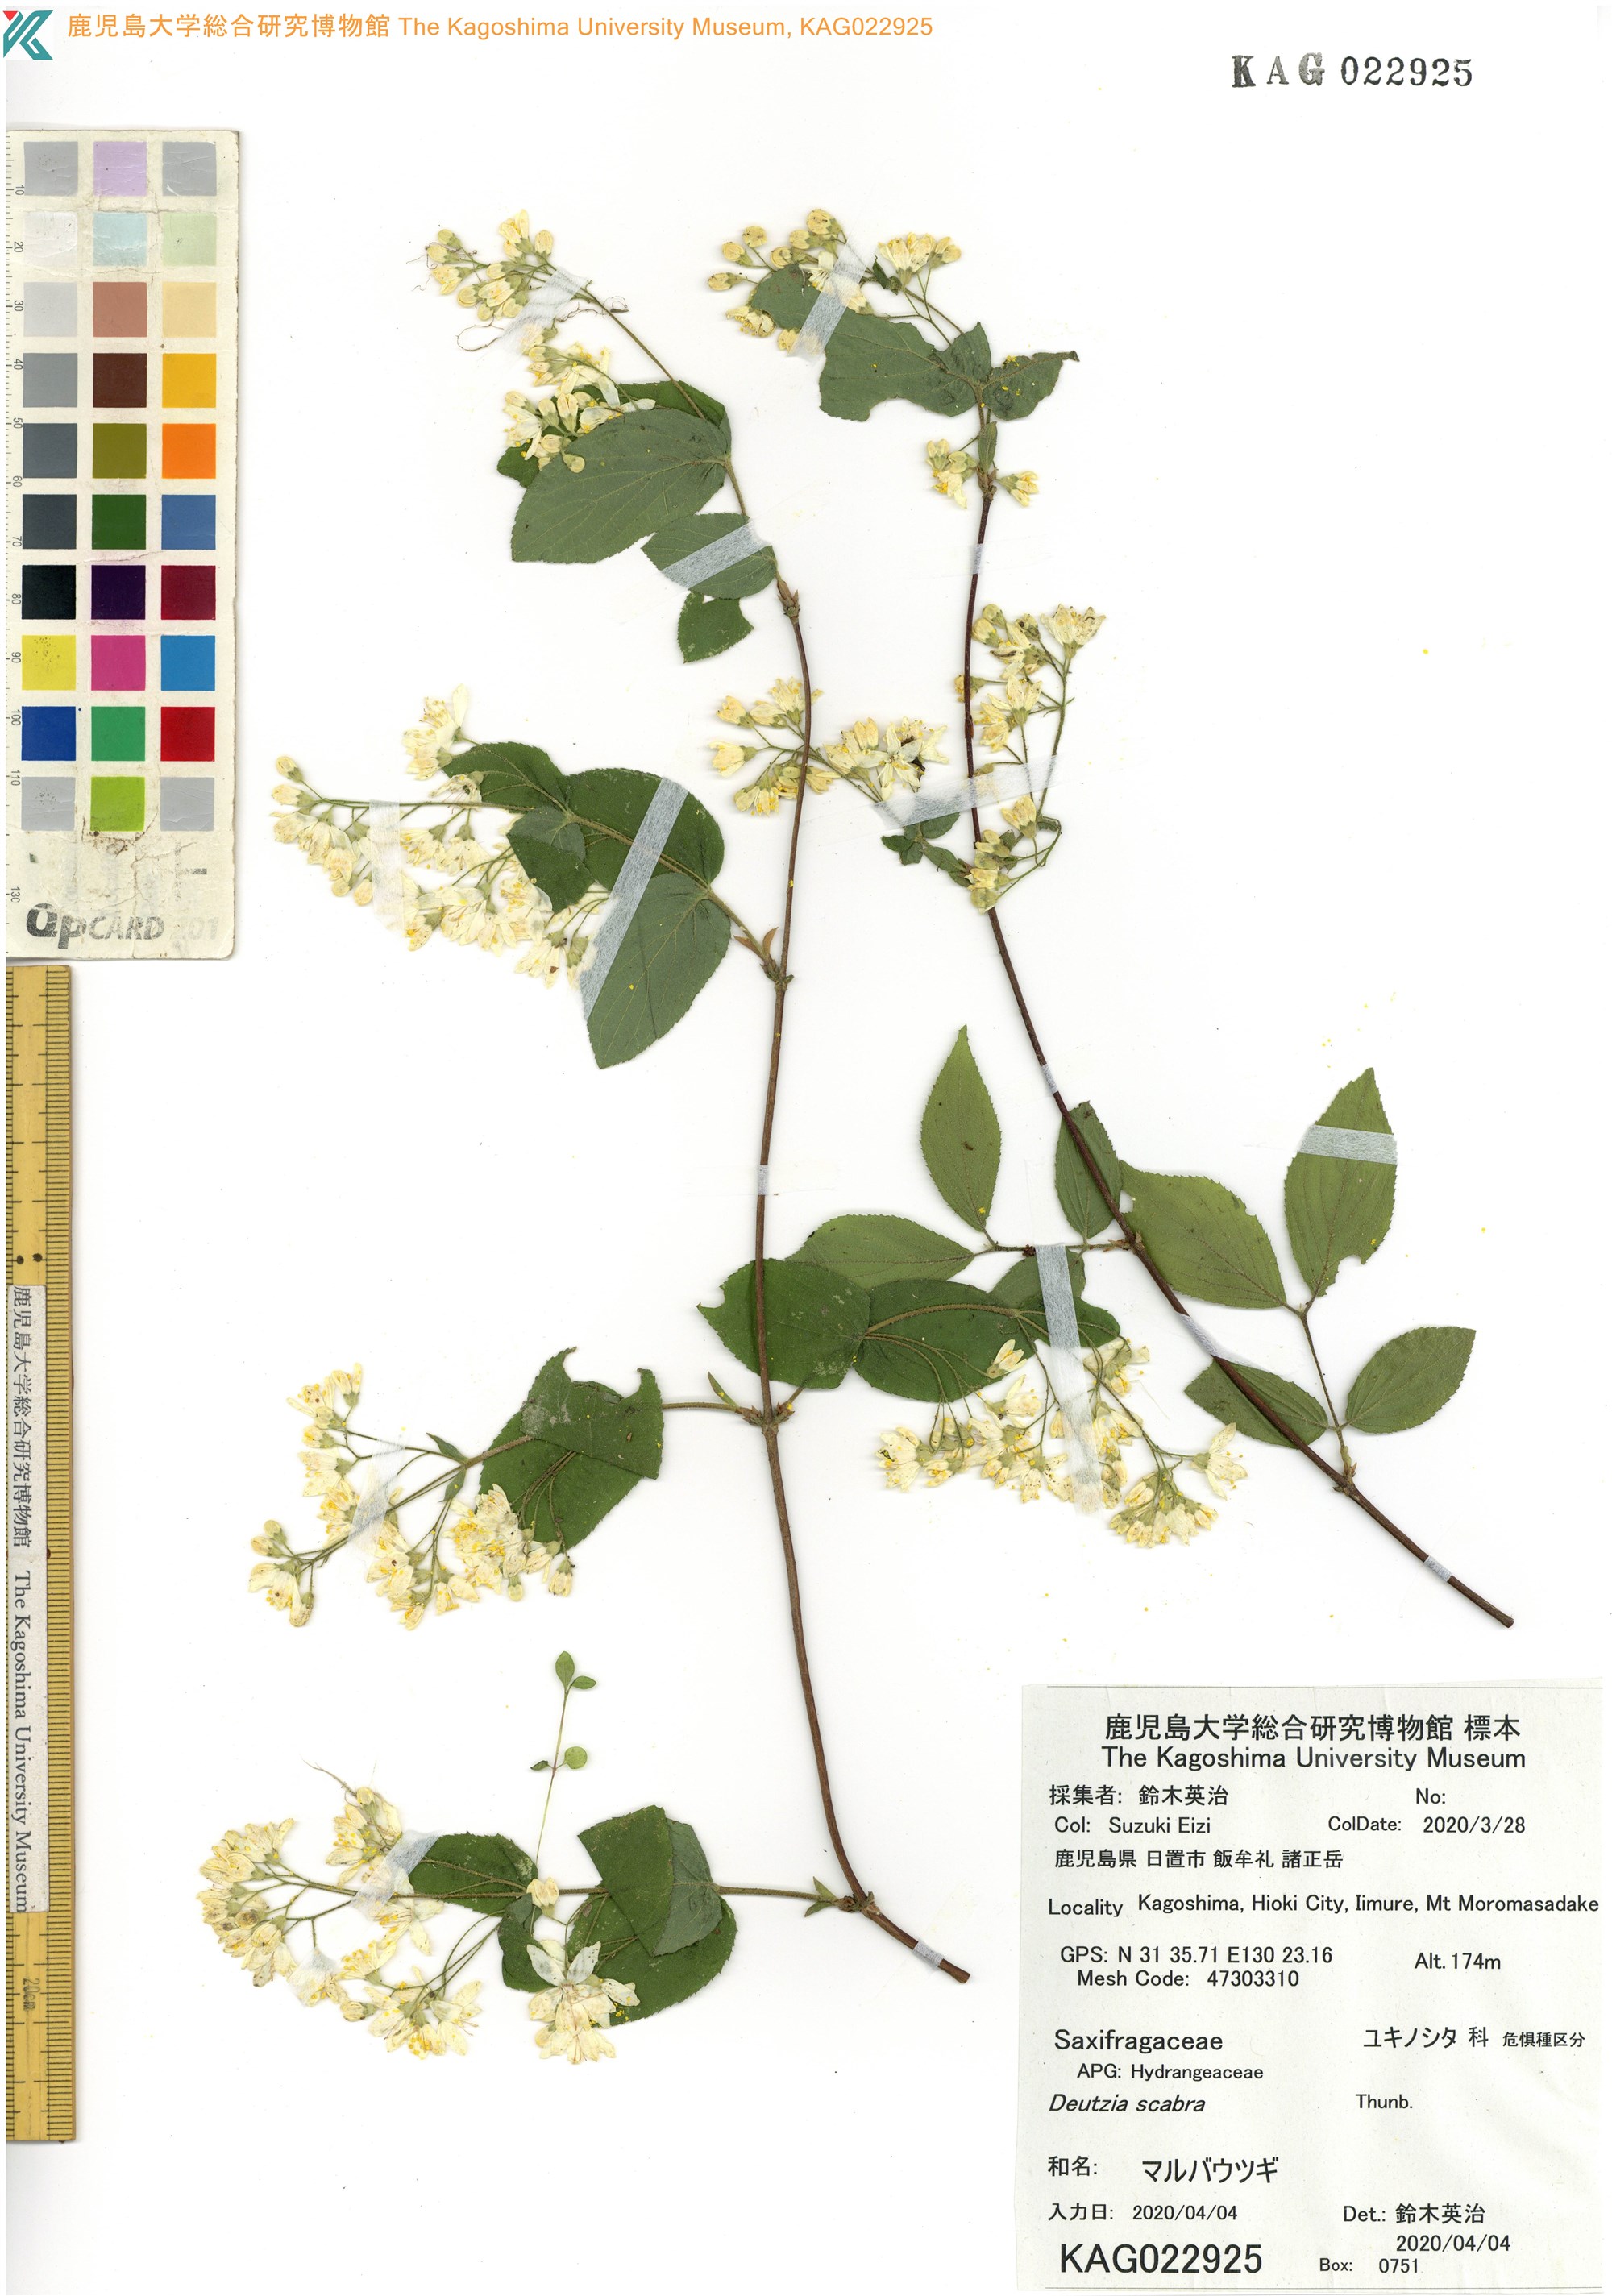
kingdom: Plantae
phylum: Tracheophyta
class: Magnoliopsida
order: Cornales
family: Hydrangeaceae
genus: Deutzia
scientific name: Deutzia scabra
